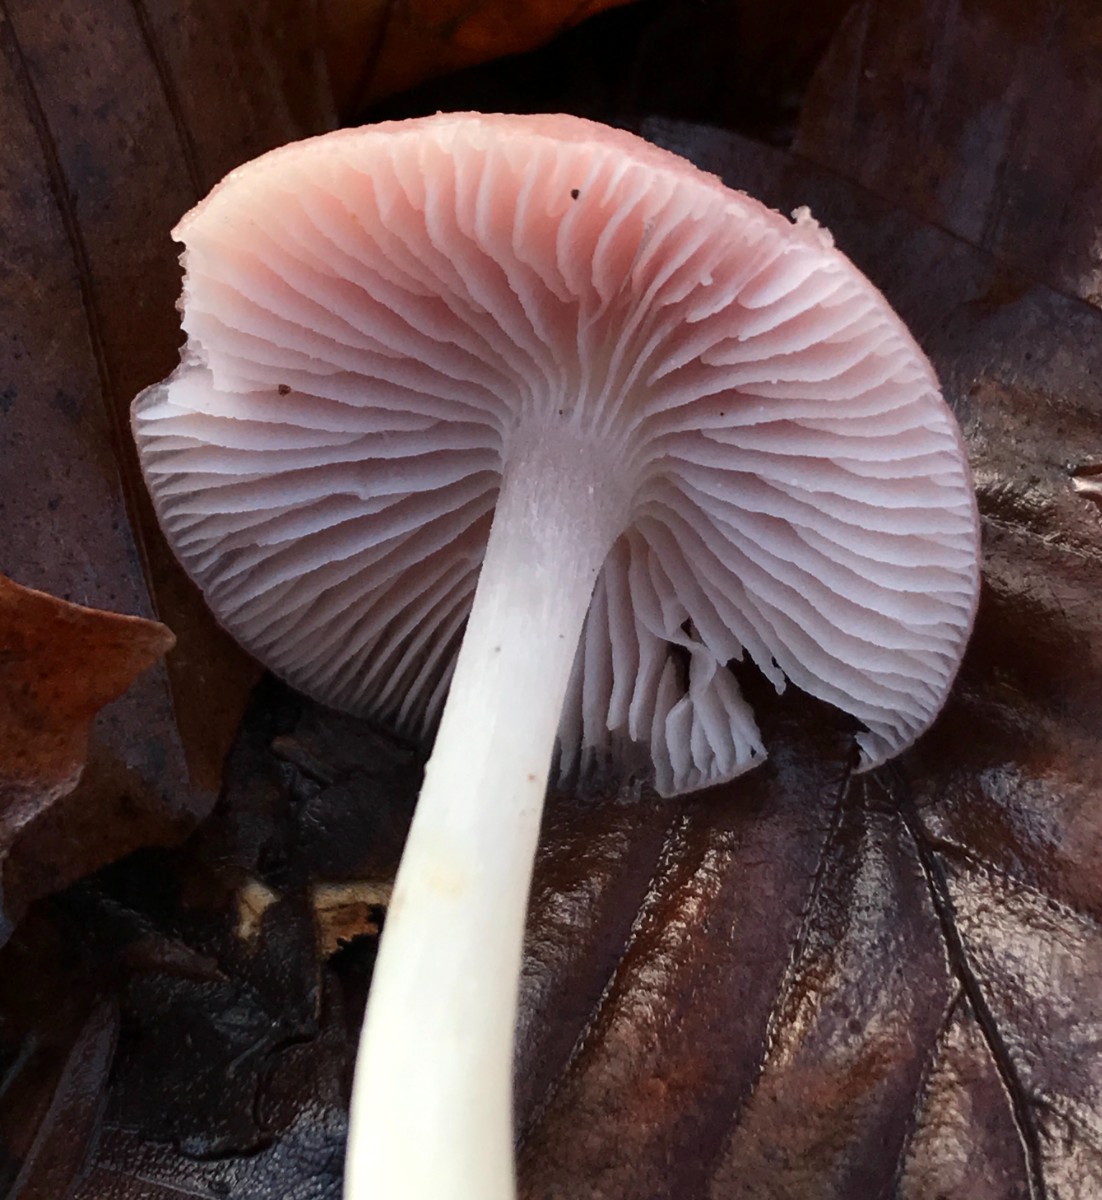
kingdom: Fungi
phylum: Basidiomycota
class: Agaricomycetes
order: Agaricales
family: Mycenaceae
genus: Mycena
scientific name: Mycena rosea
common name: rosa huesvamp
